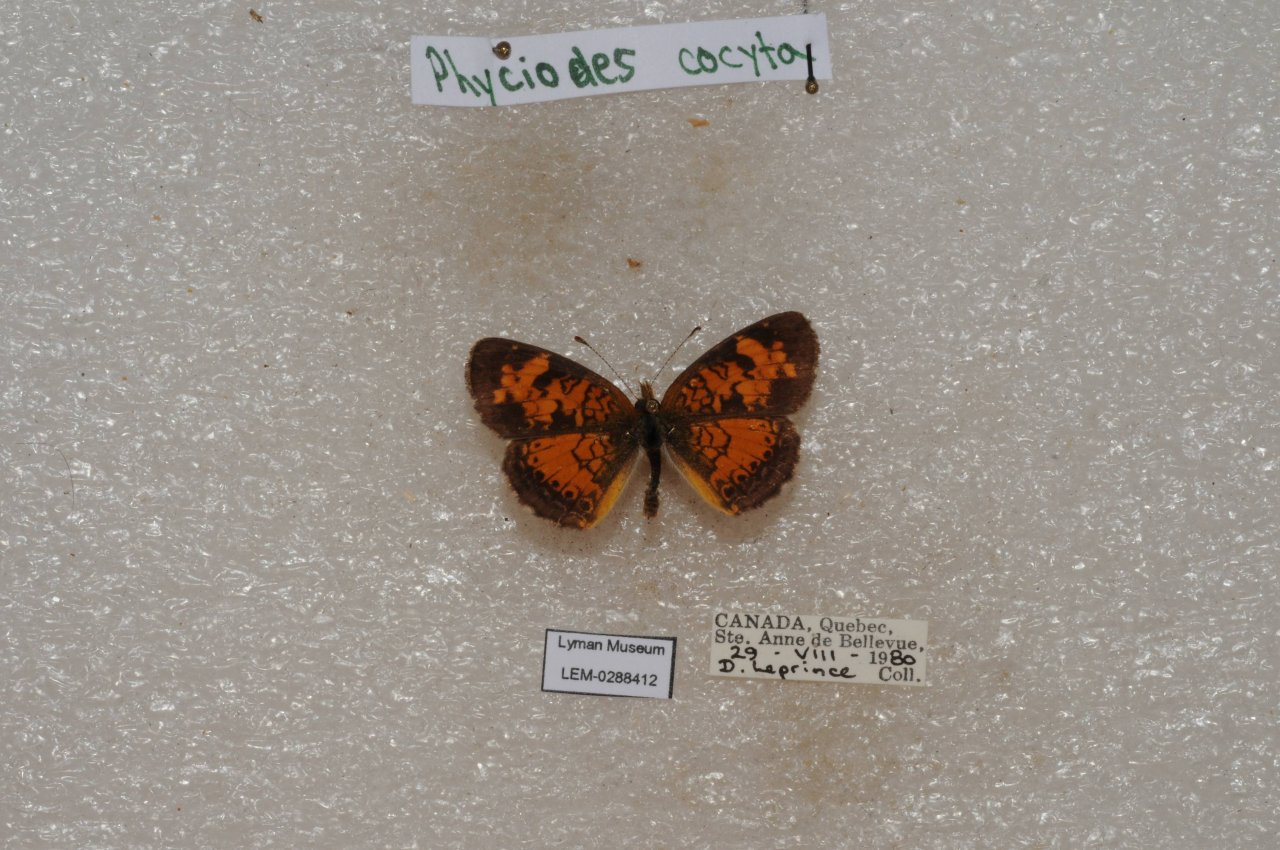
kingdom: Animalia
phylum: Arthropoda
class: Insecta
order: Lepidoptera
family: Nymphalidae
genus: Phyciodes
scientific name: Phyciodes tharos
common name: Northern Crescent
